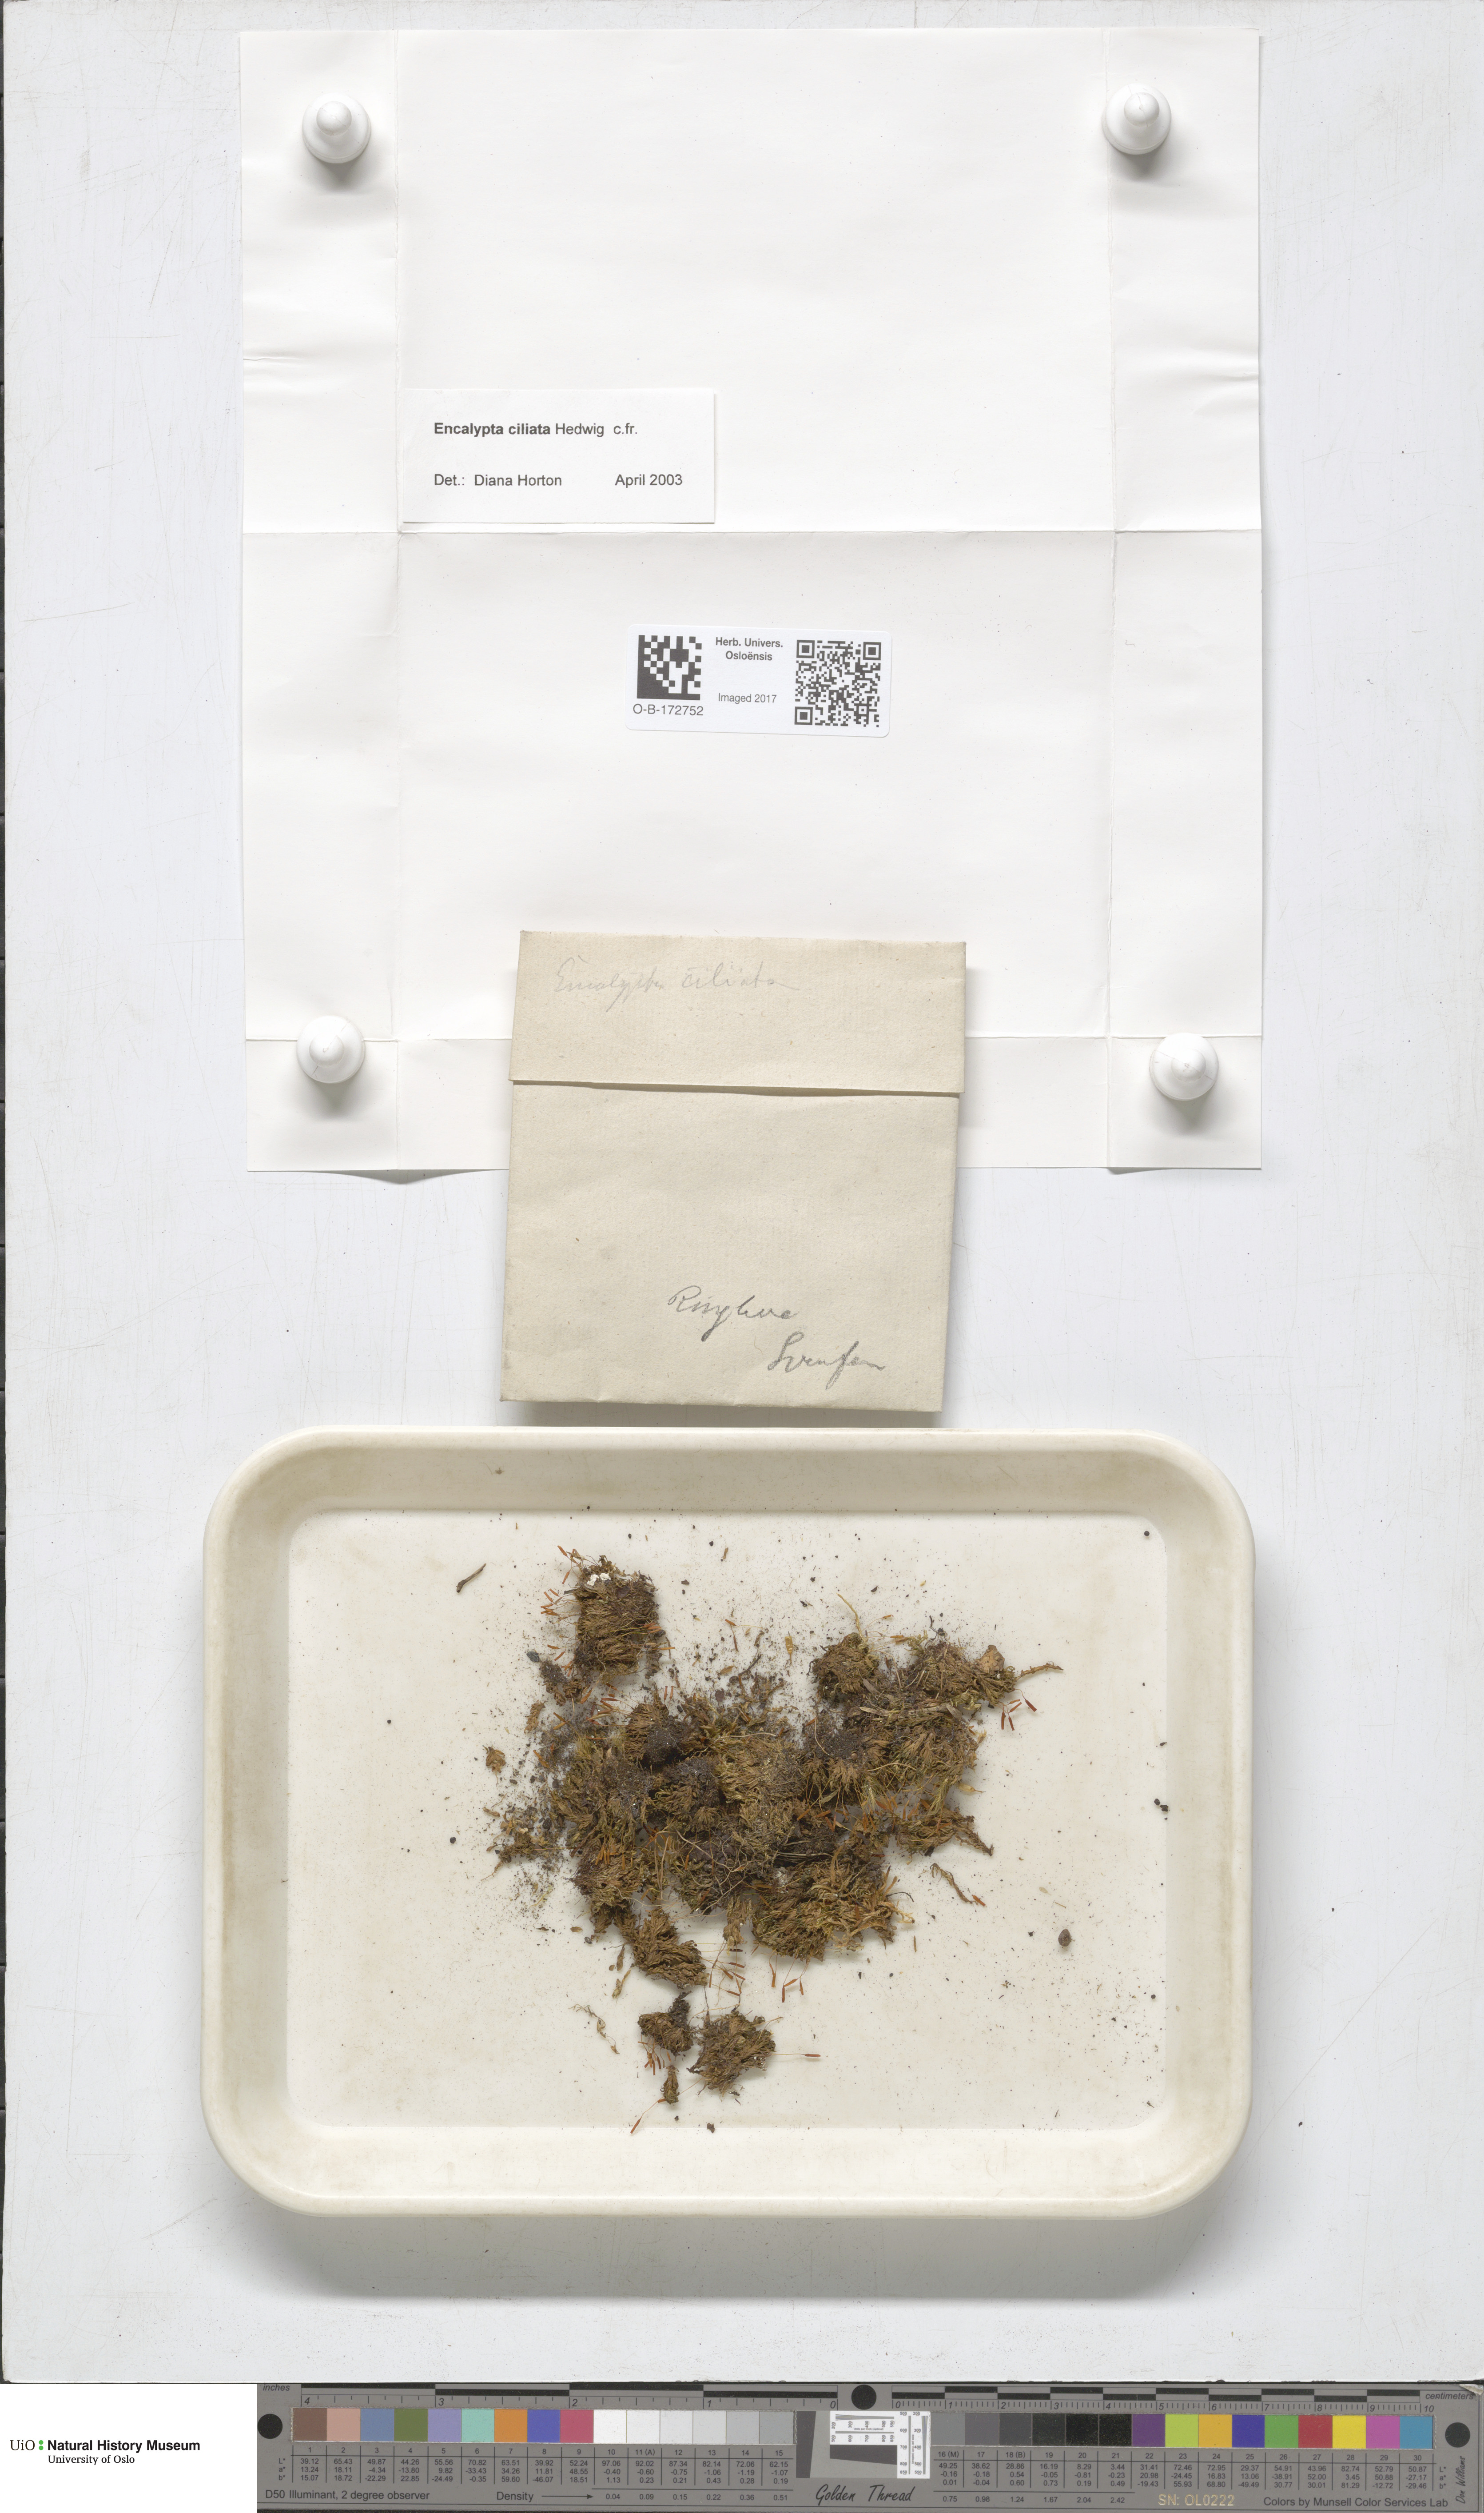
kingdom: Plantae
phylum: Bryophyta
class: Bryopsida
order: Encalyptales
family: Encalyptaceae
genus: Encalypta
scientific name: Encalypta ciliata
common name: Fringed extinguisher-moss
